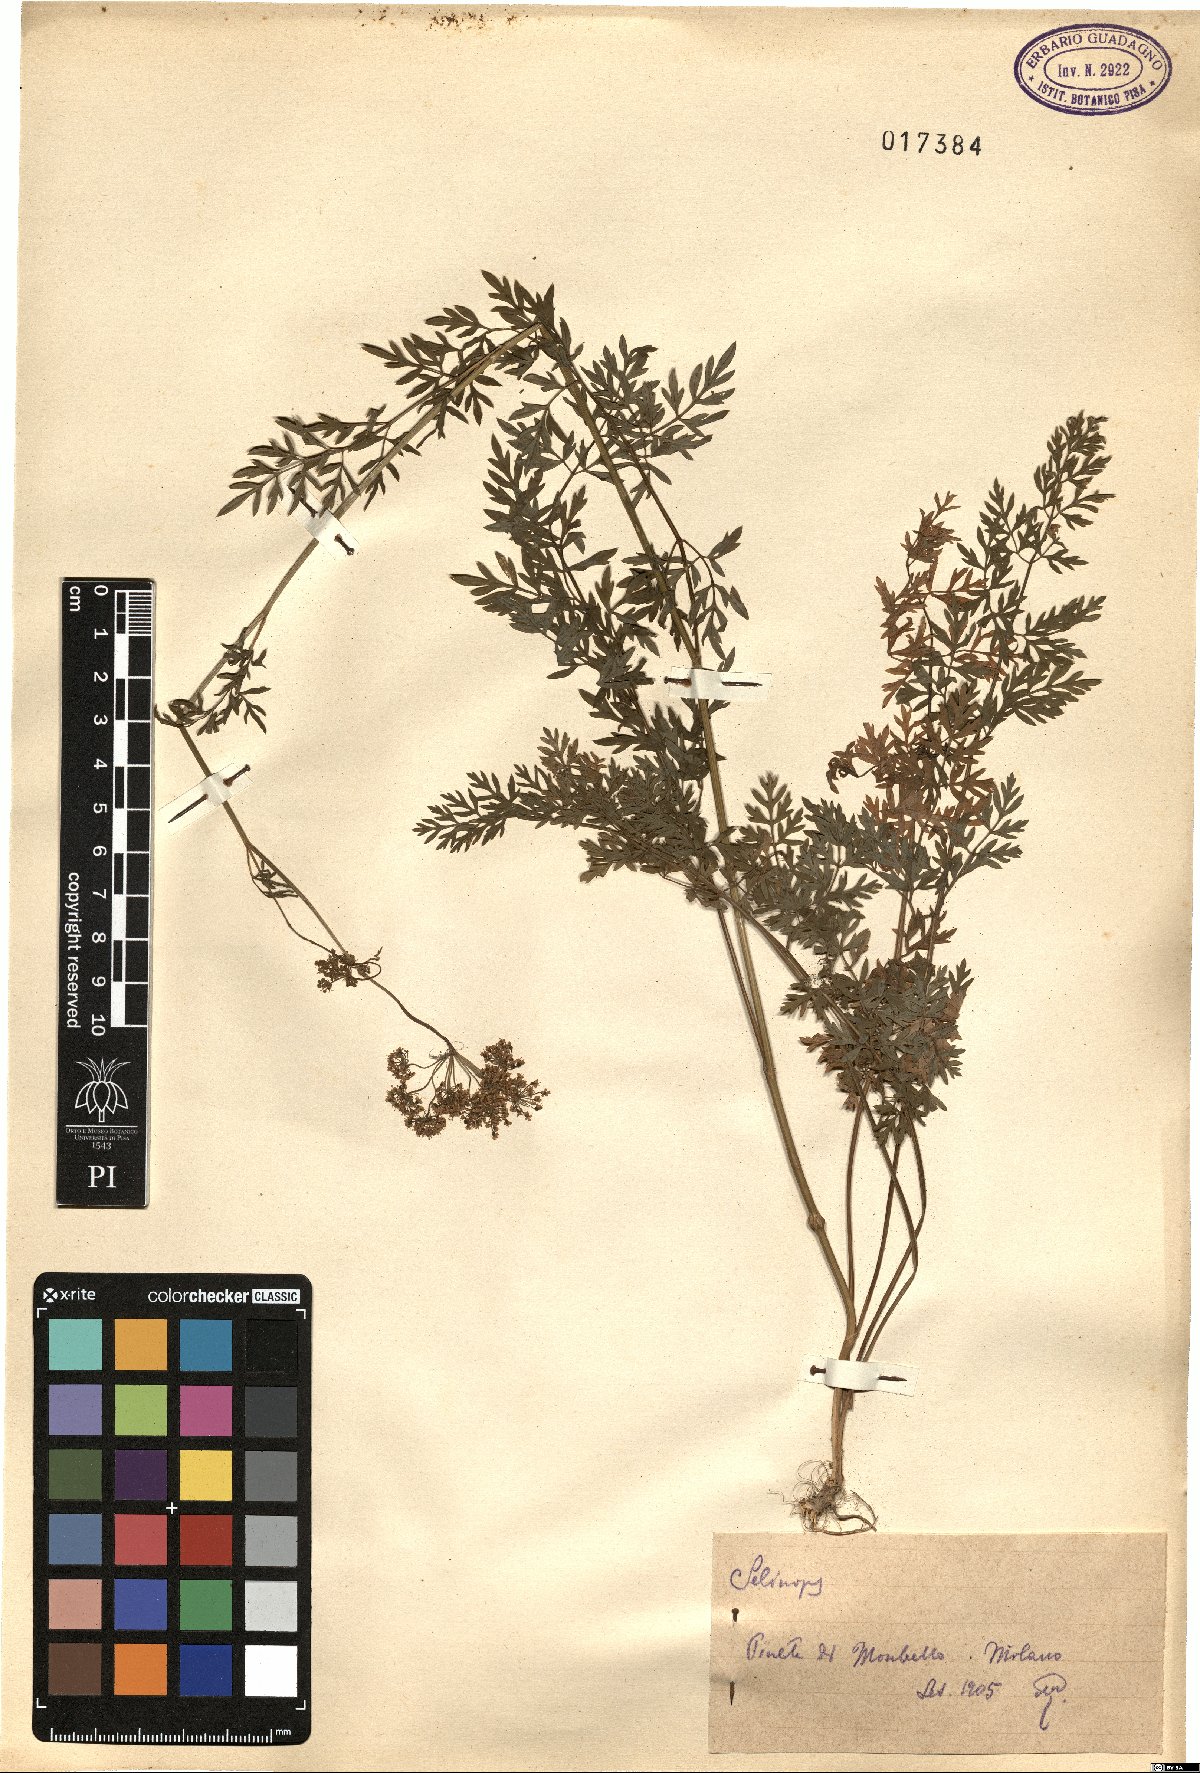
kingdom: Plantae
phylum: Tracheophyta
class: Magnoliopsida
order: Apiales
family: Apiaceae
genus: Selinopsis
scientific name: Selinopsis
